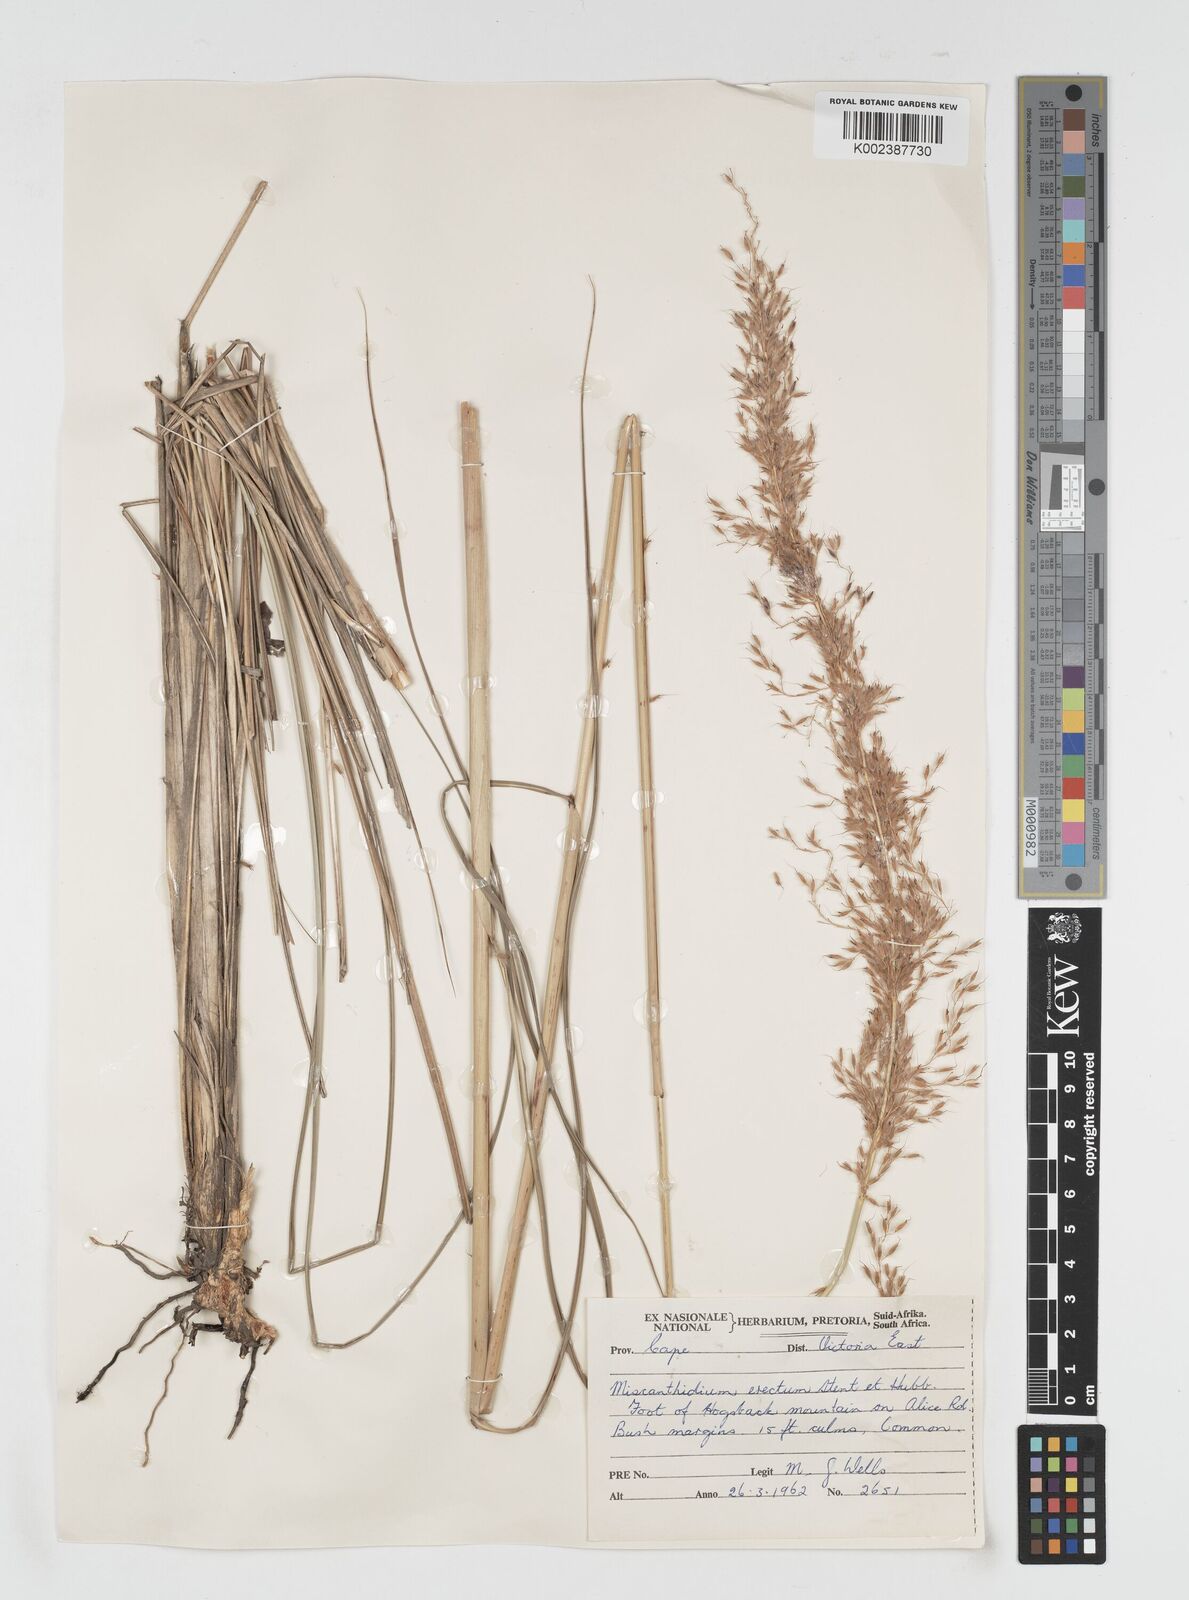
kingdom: Plantae
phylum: Tracheophyta
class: Liliopsida
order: Poales
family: Poaceae
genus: Miscanthus
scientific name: Miscanthus ecklonii
